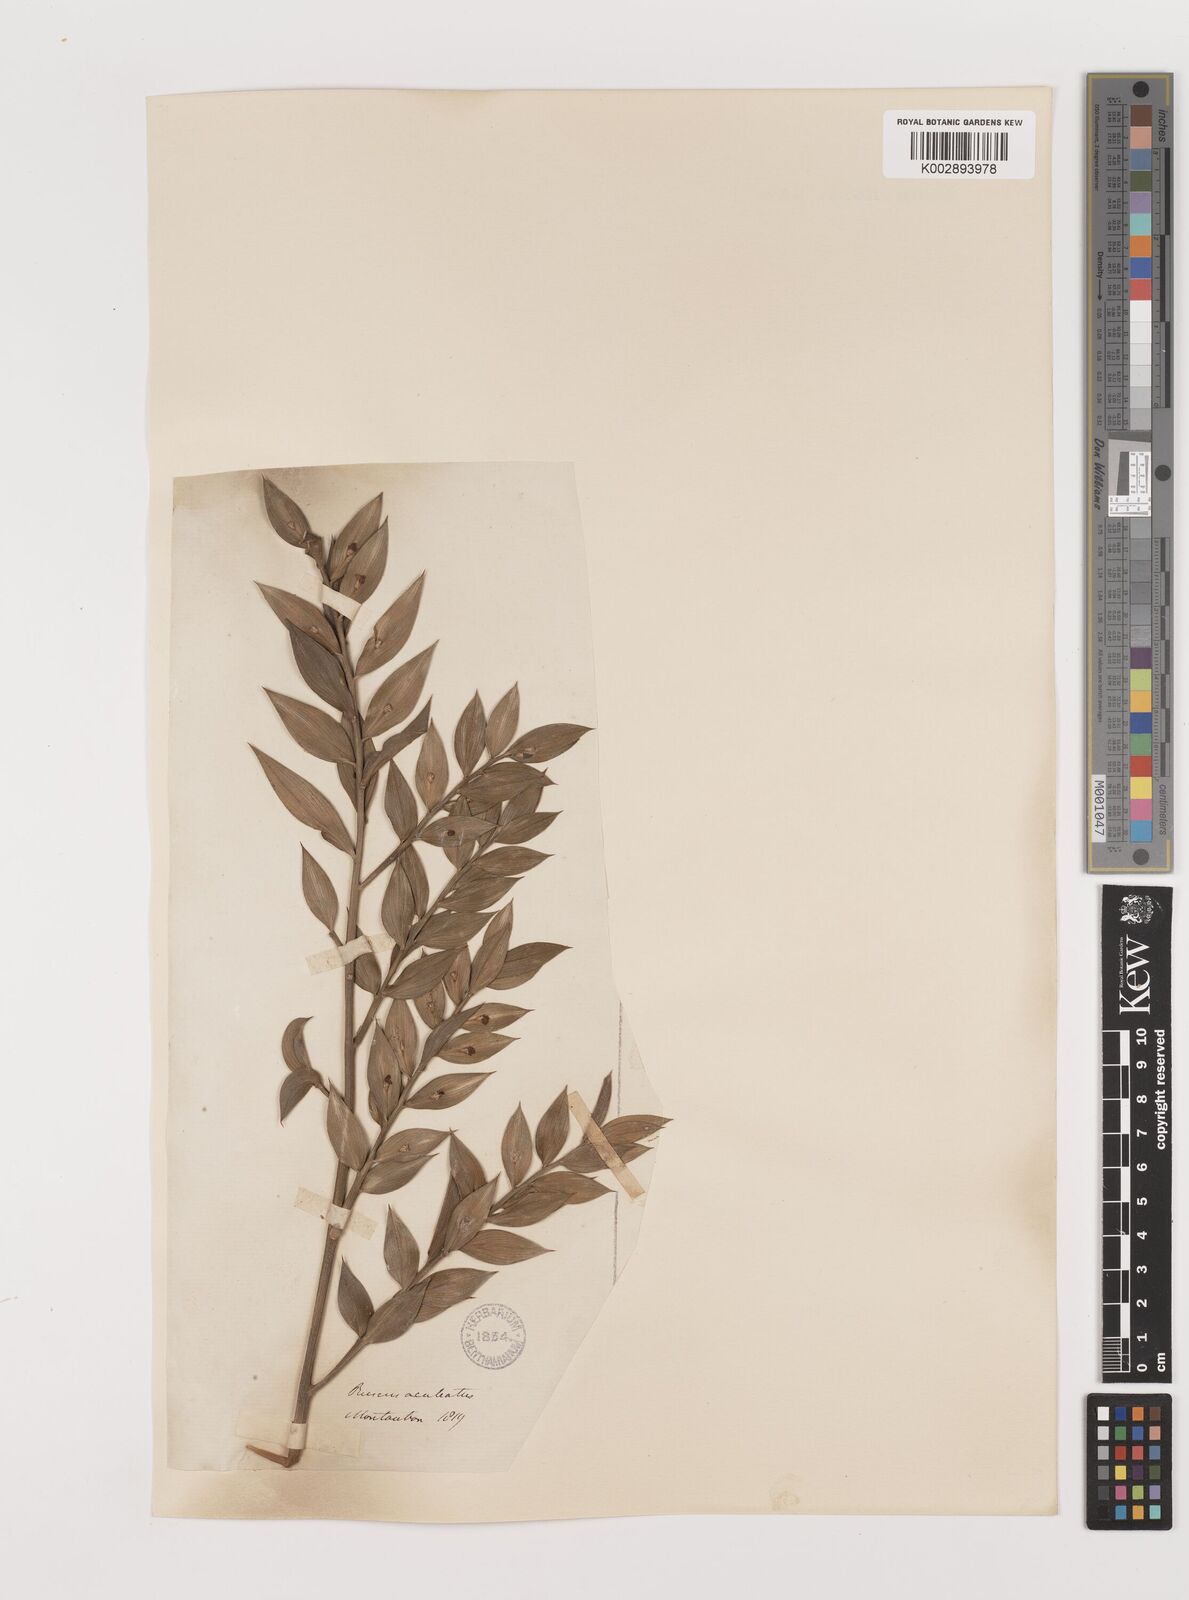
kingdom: Plantae
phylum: Tracheophyta
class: Liliopsida
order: Asparagales
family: Asparagaceae
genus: Ruscus
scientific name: Ruscus aculeatus
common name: Butcher's-broom
